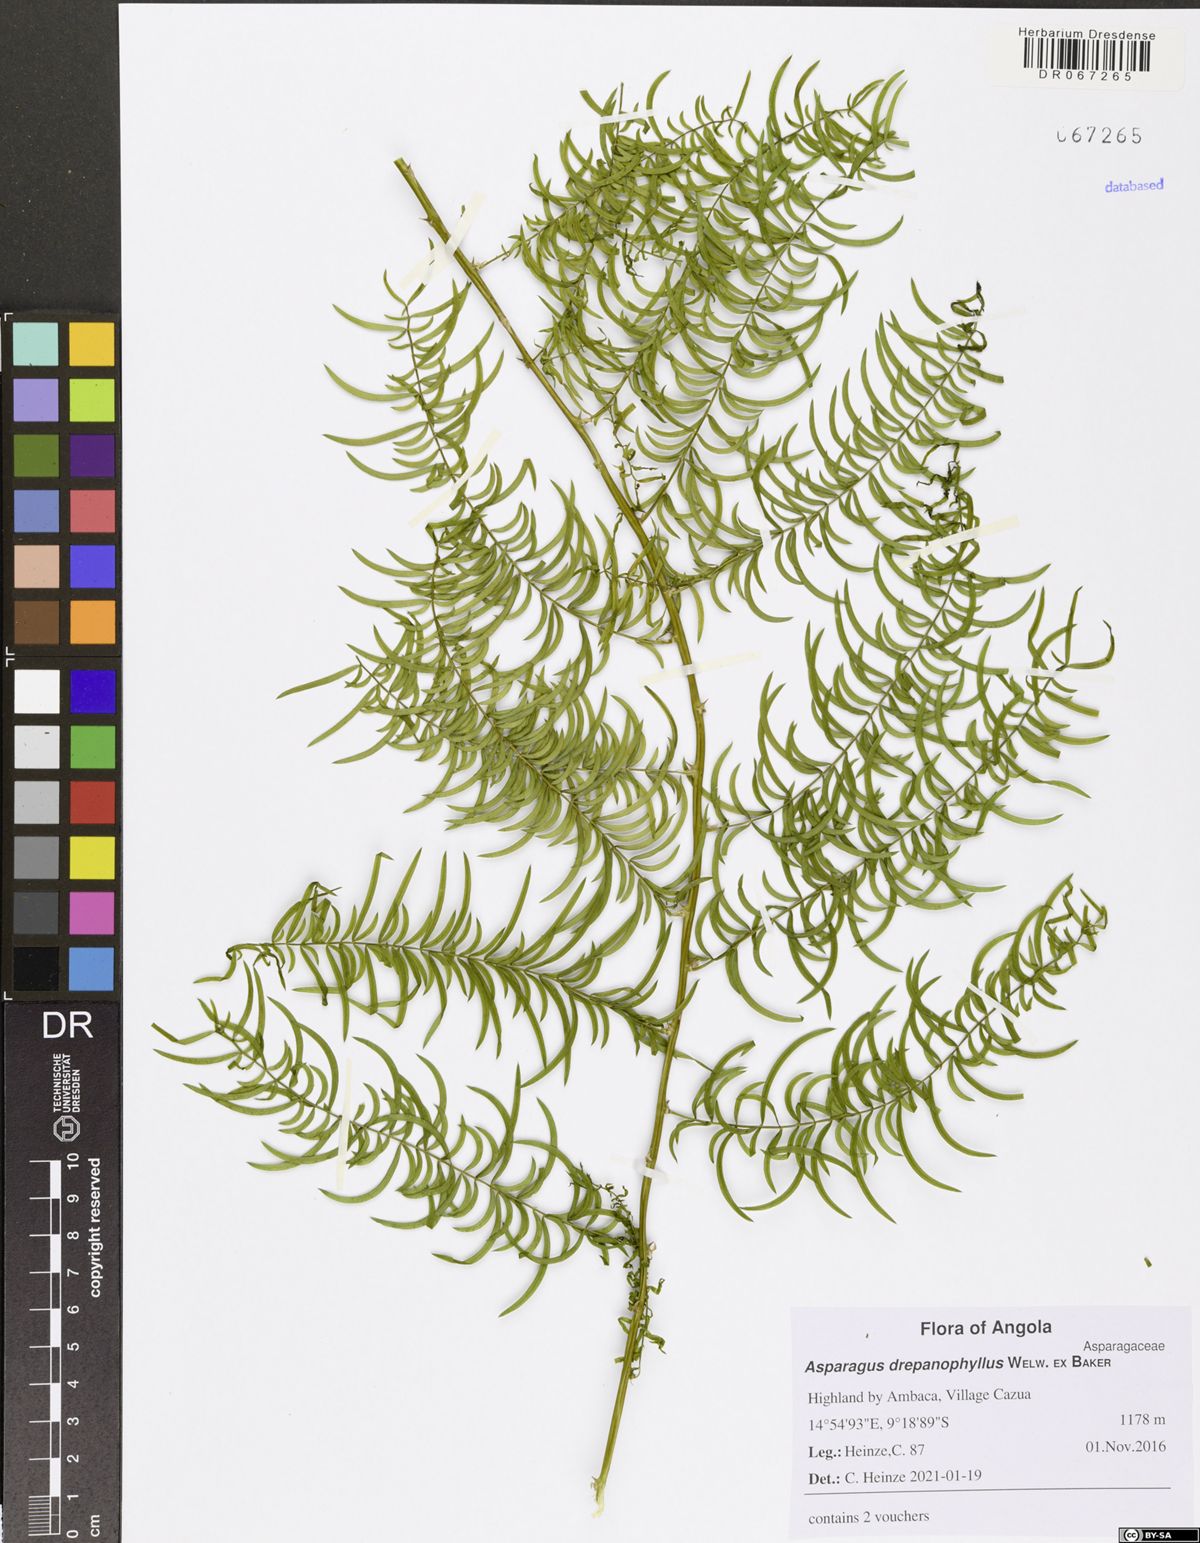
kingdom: Plantae
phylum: Tracheophyta
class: Liliopsida
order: Asparagales
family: Asparagaceae
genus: Asparagus
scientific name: Asparagus drepanophyllus
